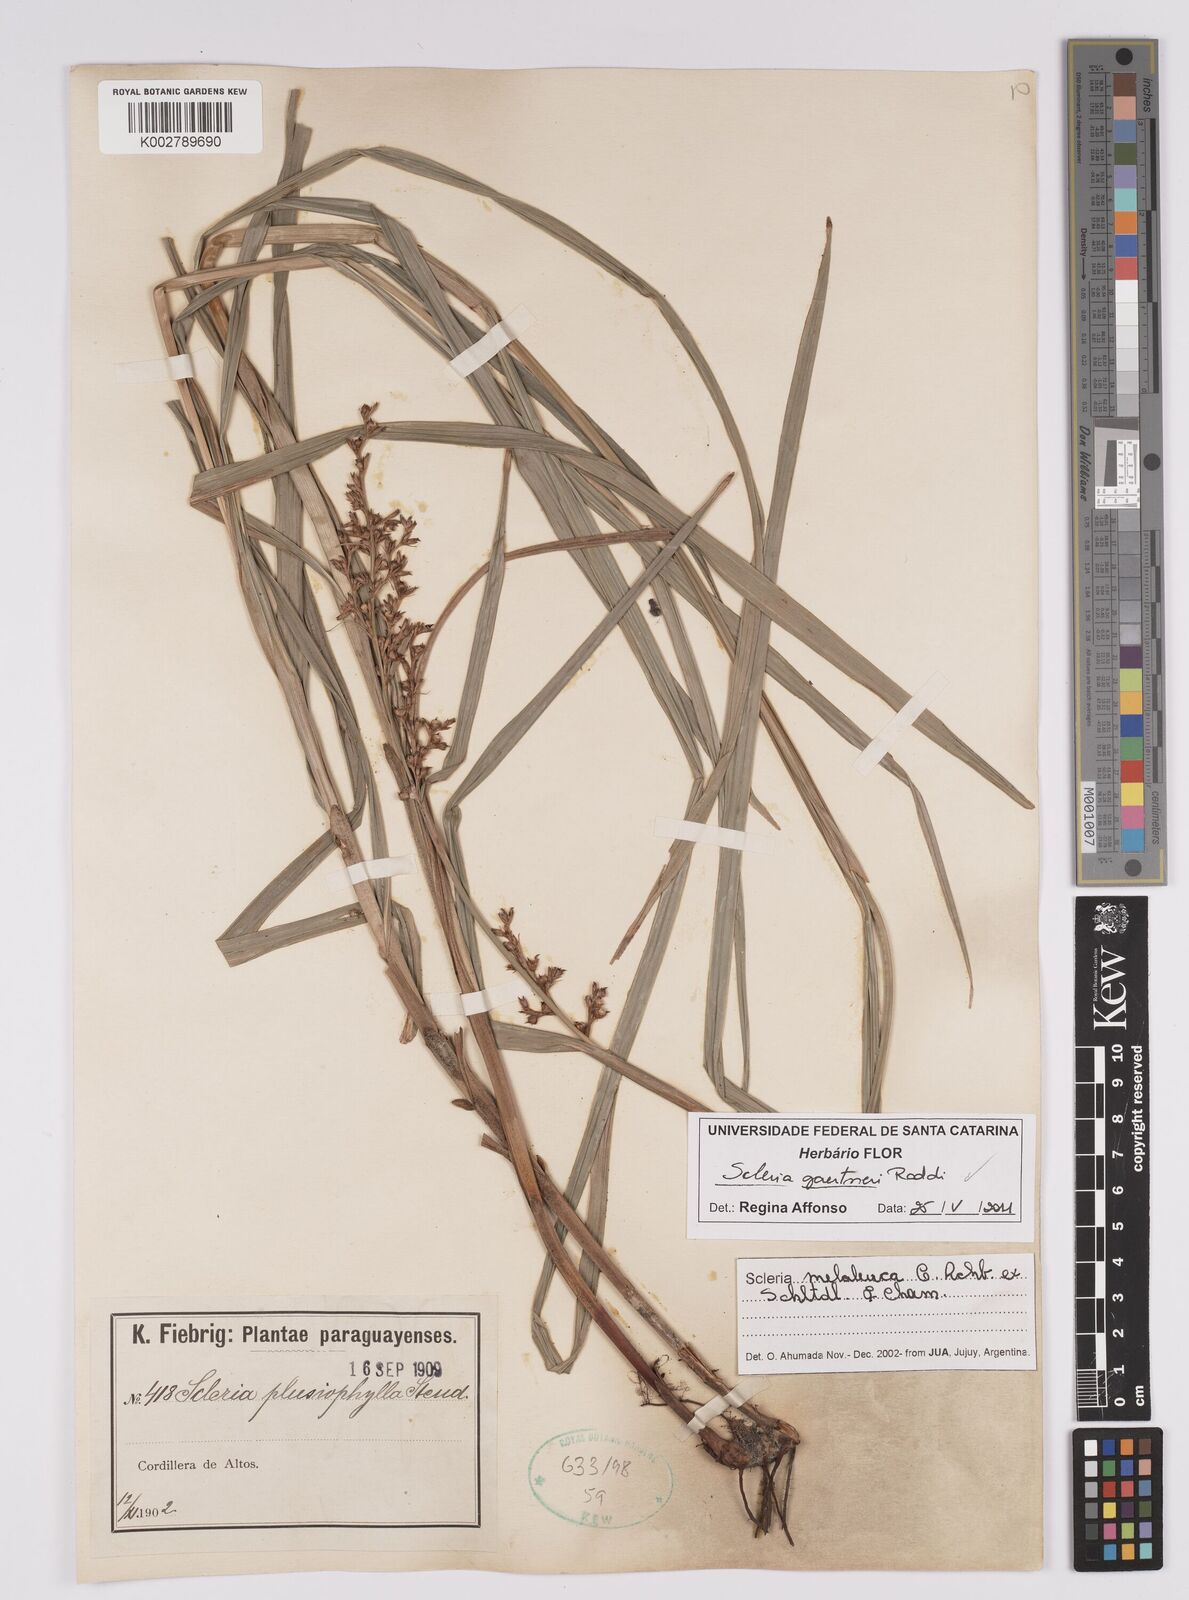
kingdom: Plantae
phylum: Tracheophyta
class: Liliopsida
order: Poales
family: Cyperaceae
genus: Scleria
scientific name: Scleria gaertneri
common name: Cortadera blanca
